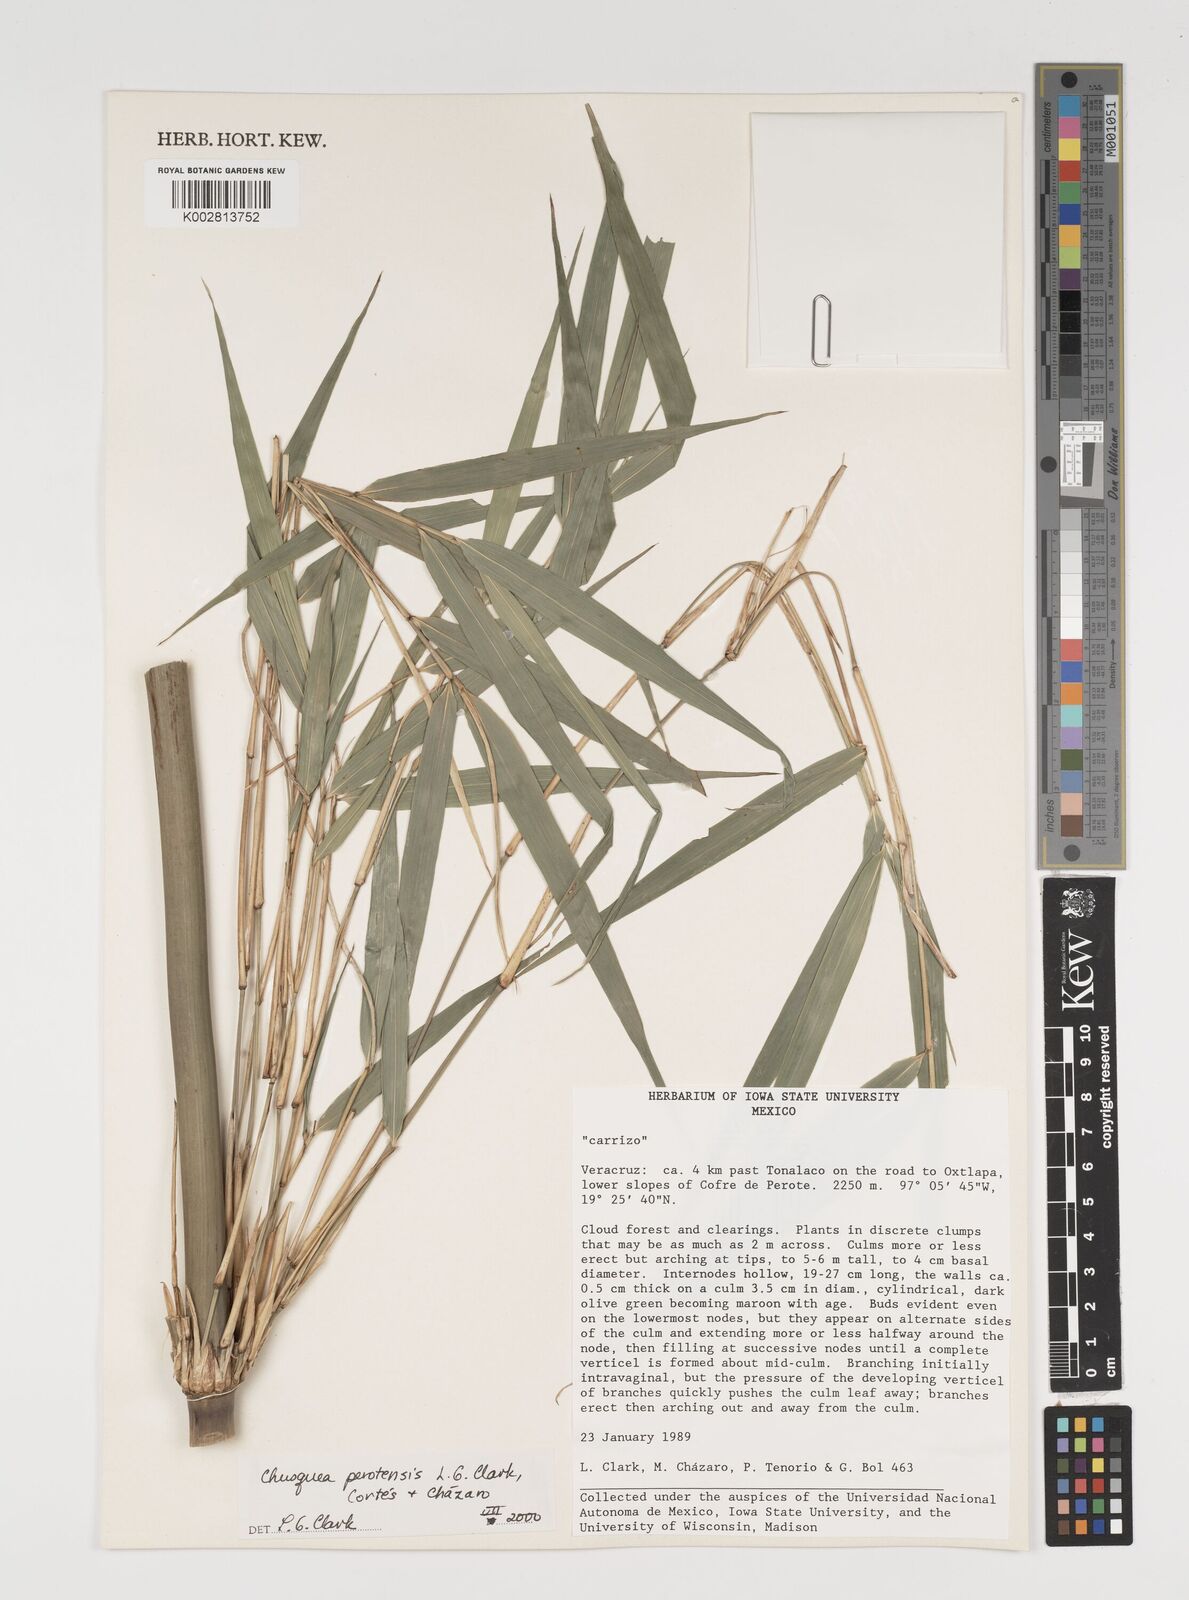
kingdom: Plantae
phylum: Tracheophyta
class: Liliopsida
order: Poales
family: Poaceae
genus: Chusquea
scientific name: Chusquea perotensis
